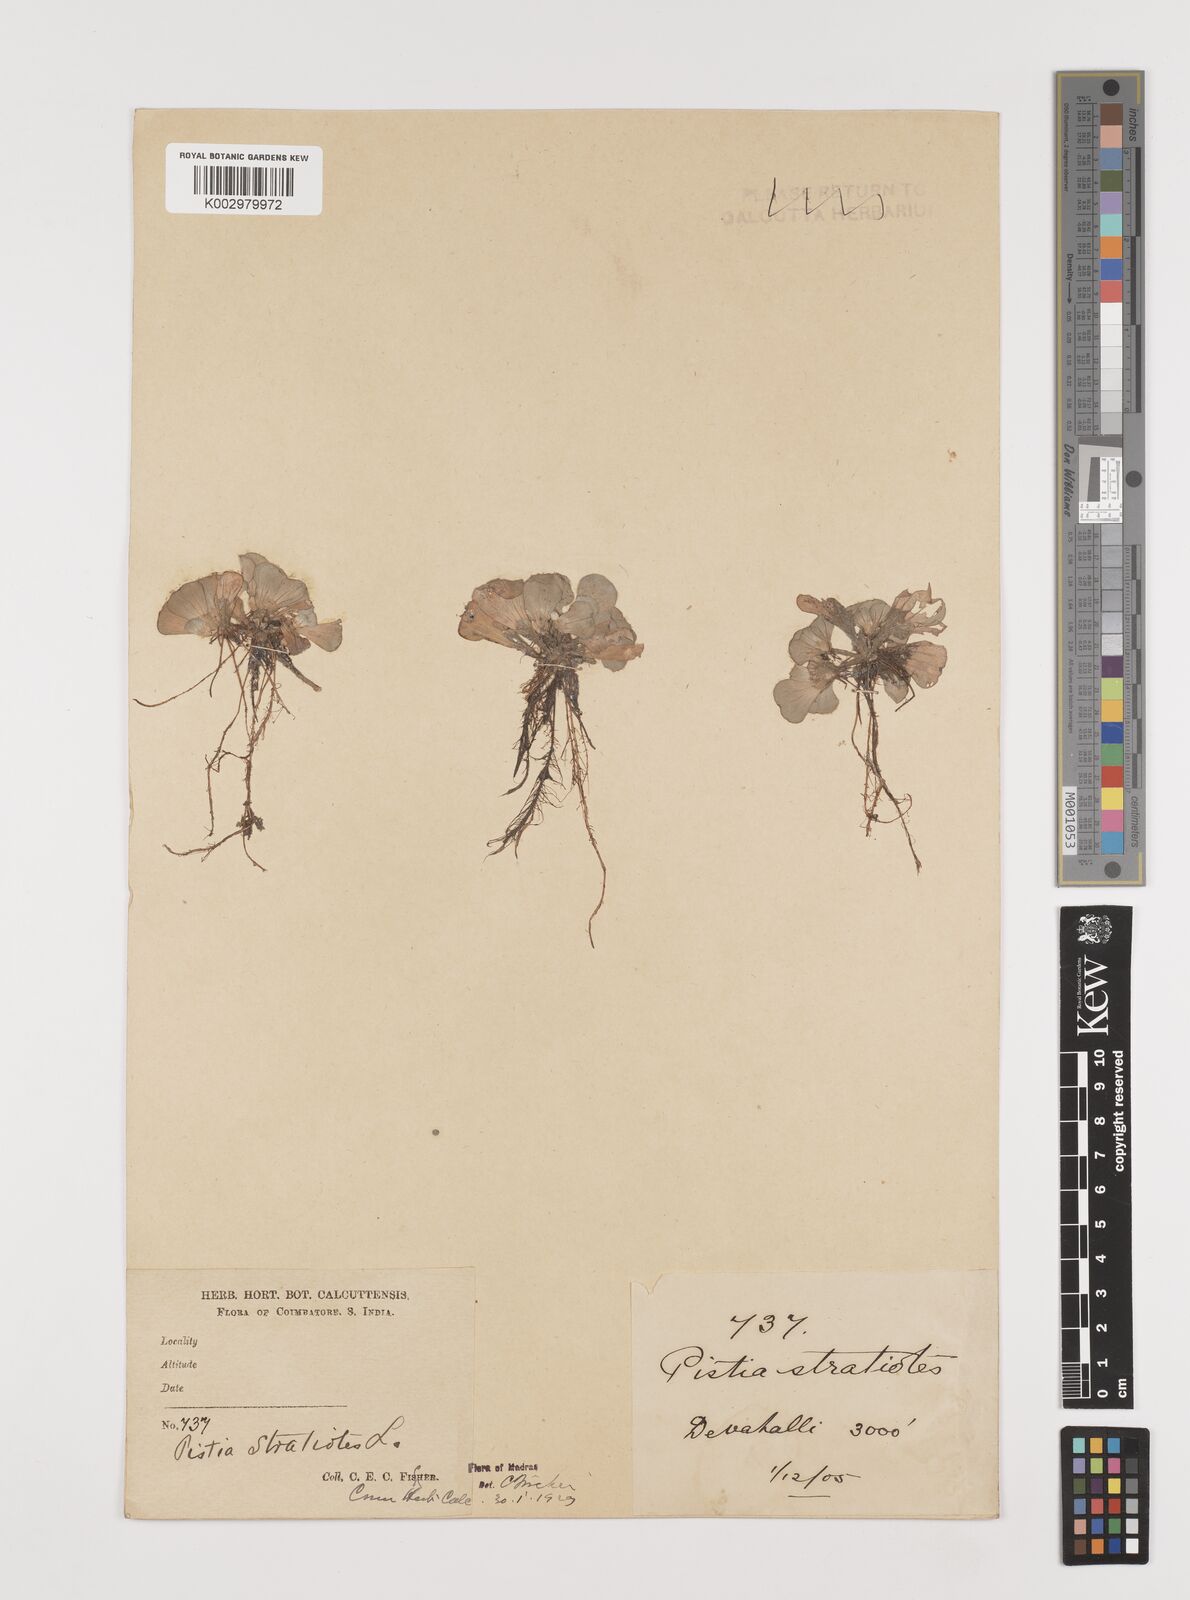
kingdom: Plantae
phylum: Tracheophyta
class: Liliopsida
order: Alismatales
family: Araceae
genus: Pistia
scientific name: Pistia stratiotes
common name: Water lettuce
